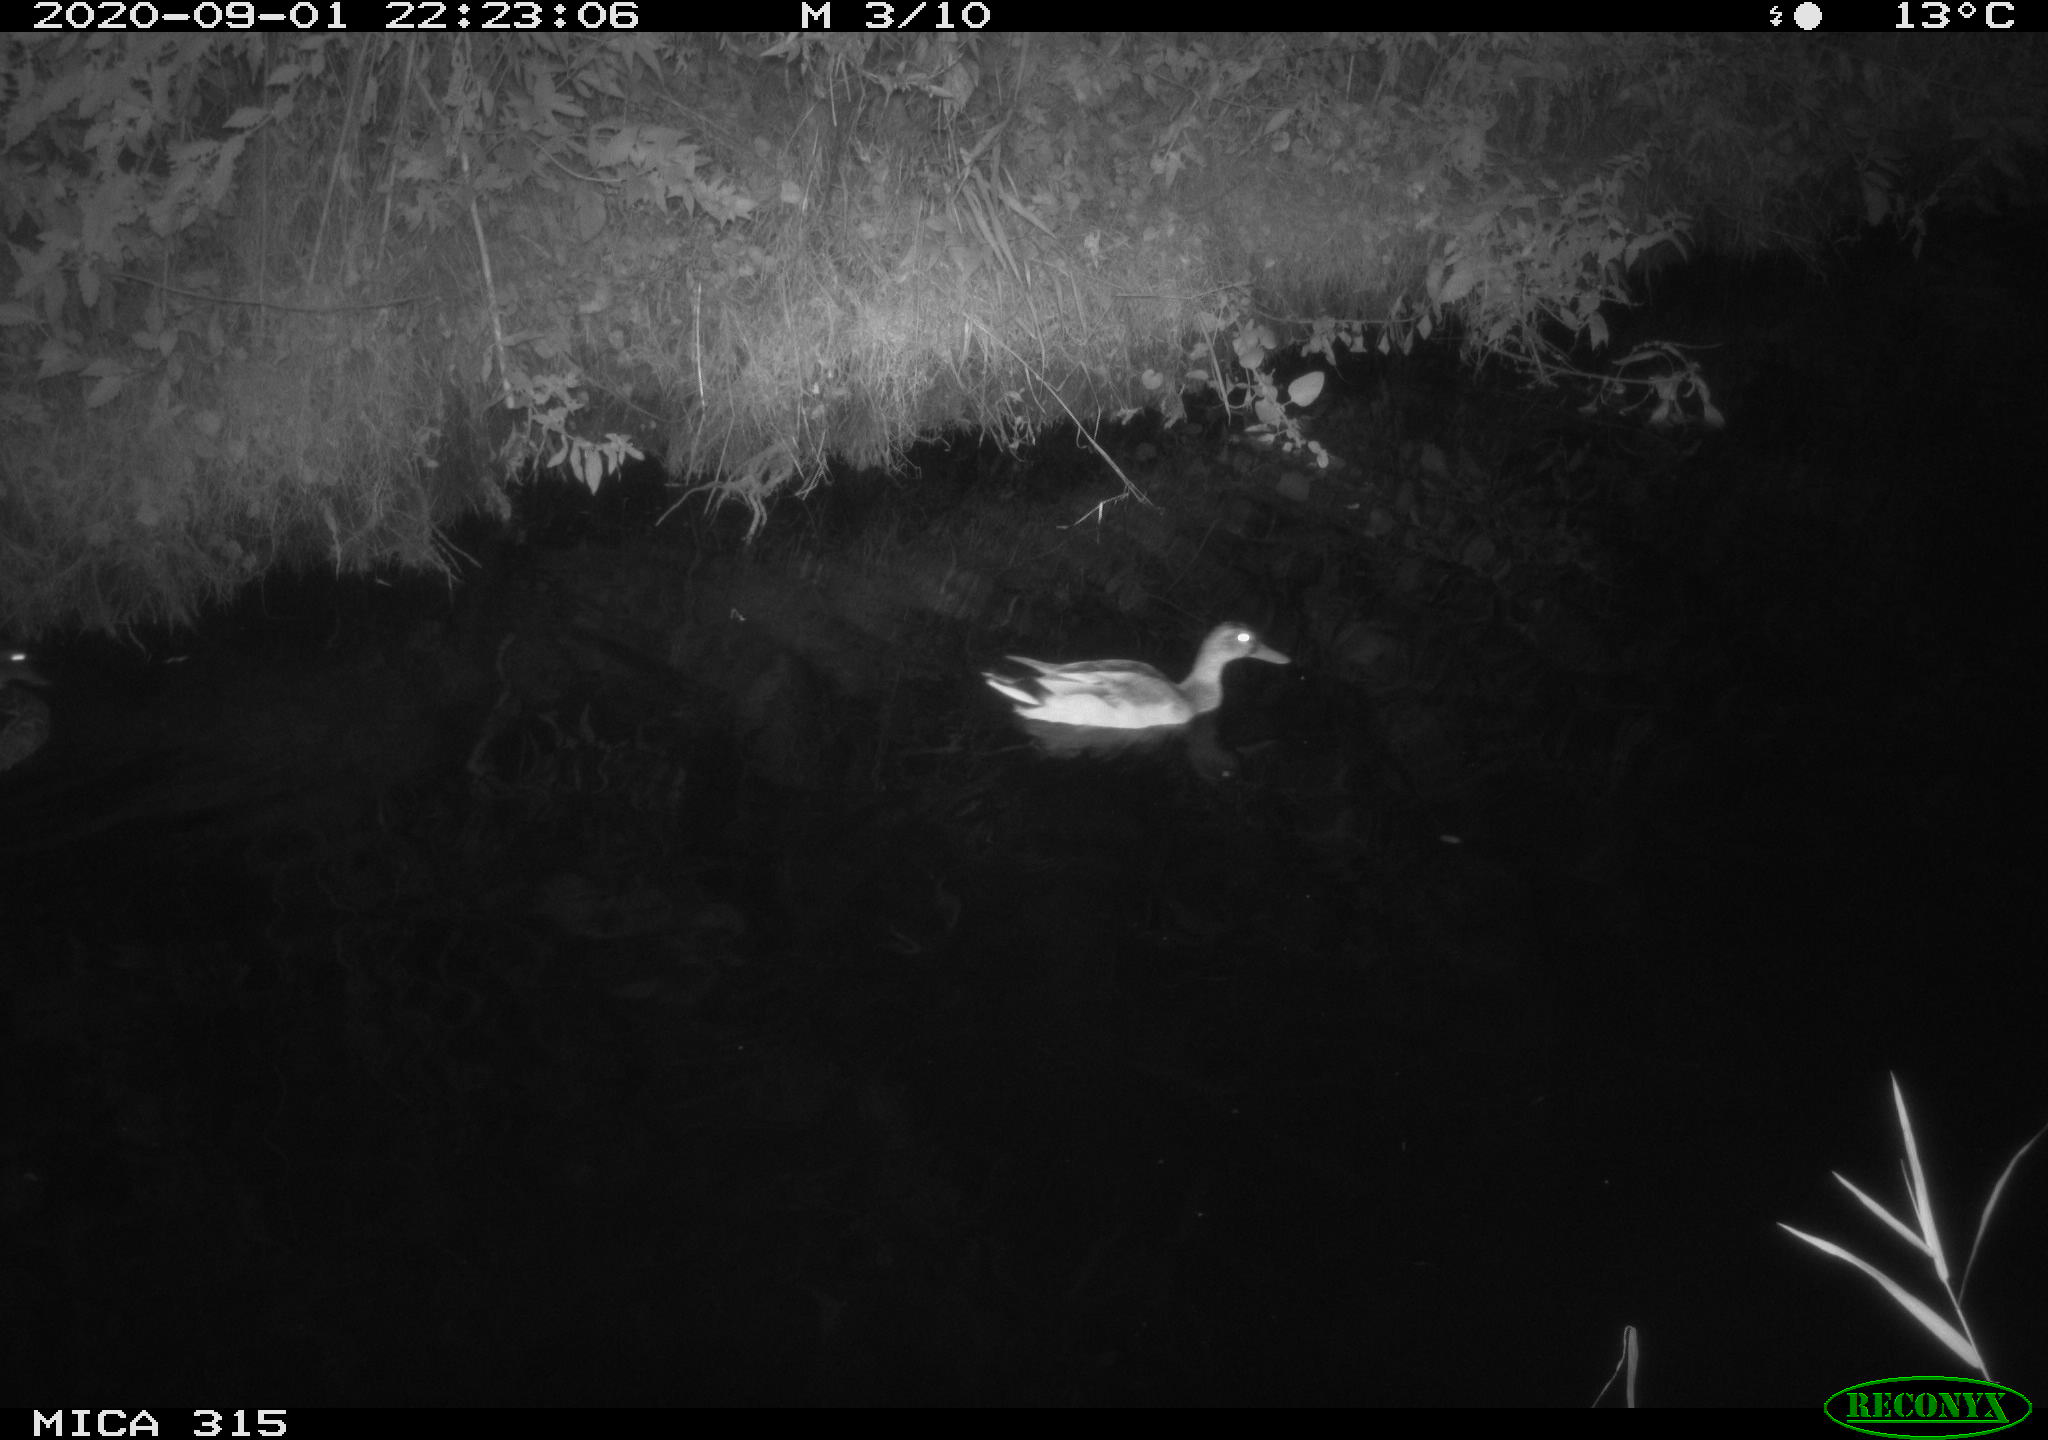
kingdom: Animalia
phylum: Chordata
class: Aves
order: Anseriformes
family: Anatidae
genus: Anas
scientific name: Anas platyrhynchos
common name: Mallard
